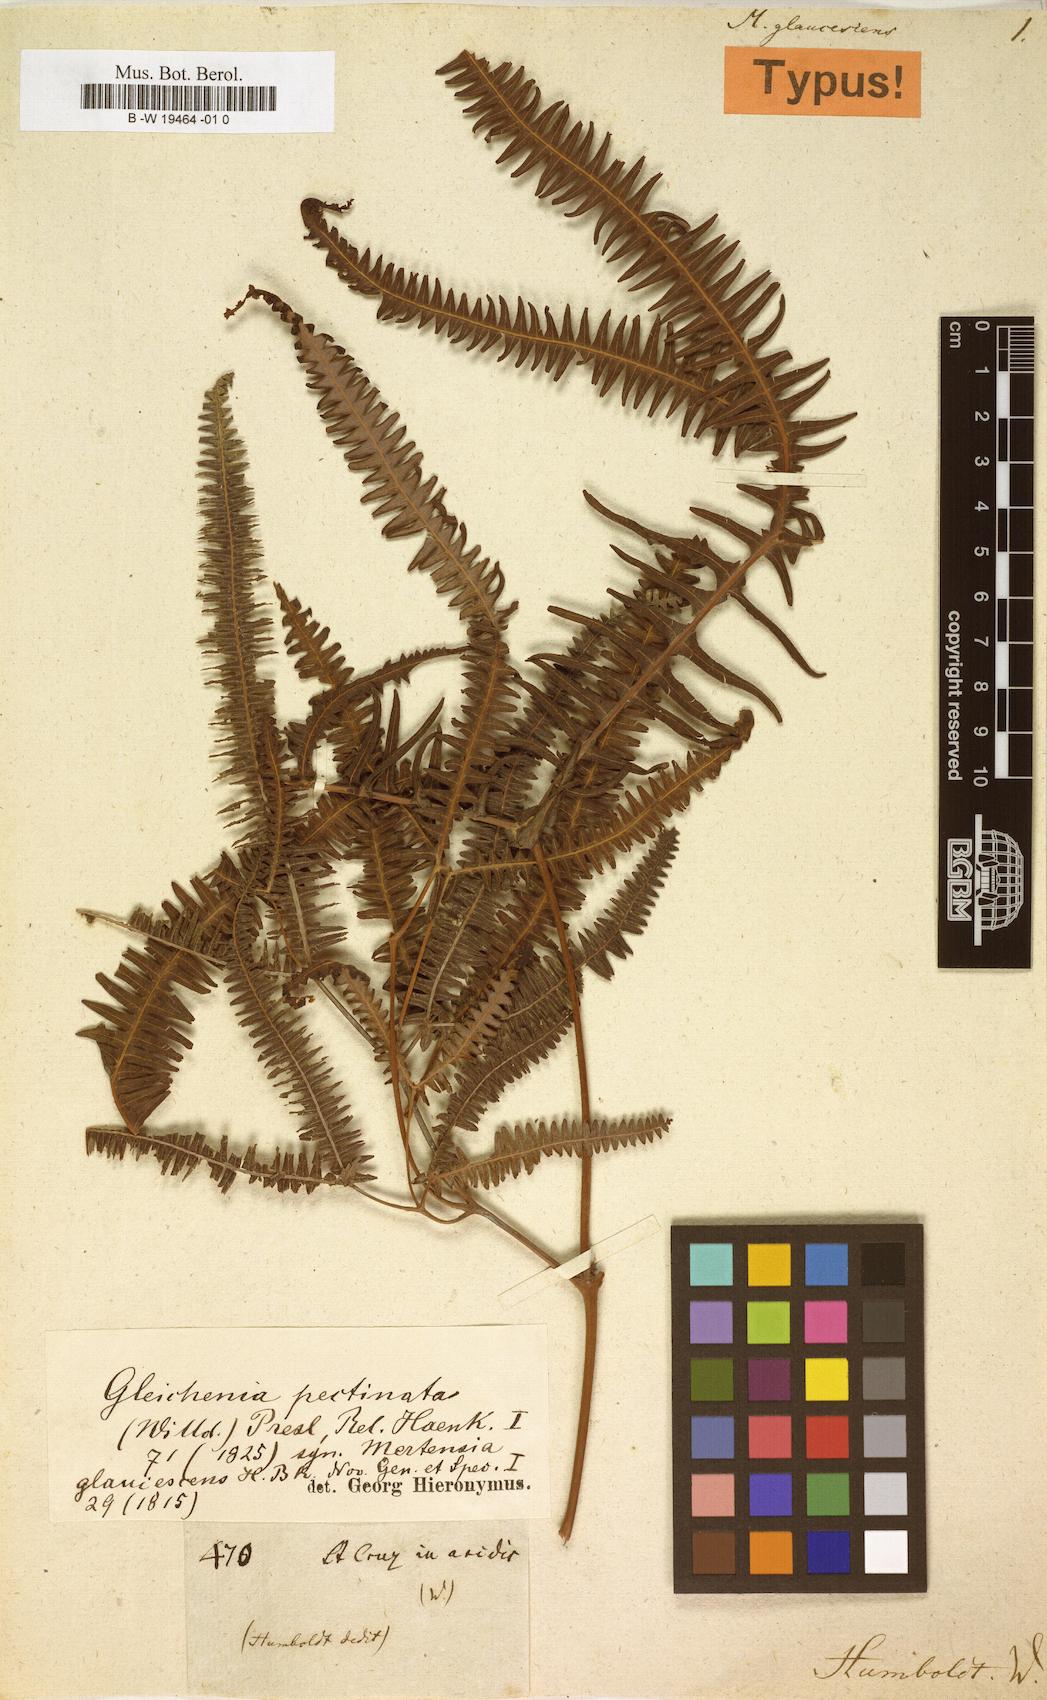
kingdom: Plantae
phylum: Tracheophyta
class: Polypodiopsida
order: Gleicheniales
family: Gleicheniaceae
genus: Gleichenella
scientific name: Gleichenella pectinata
